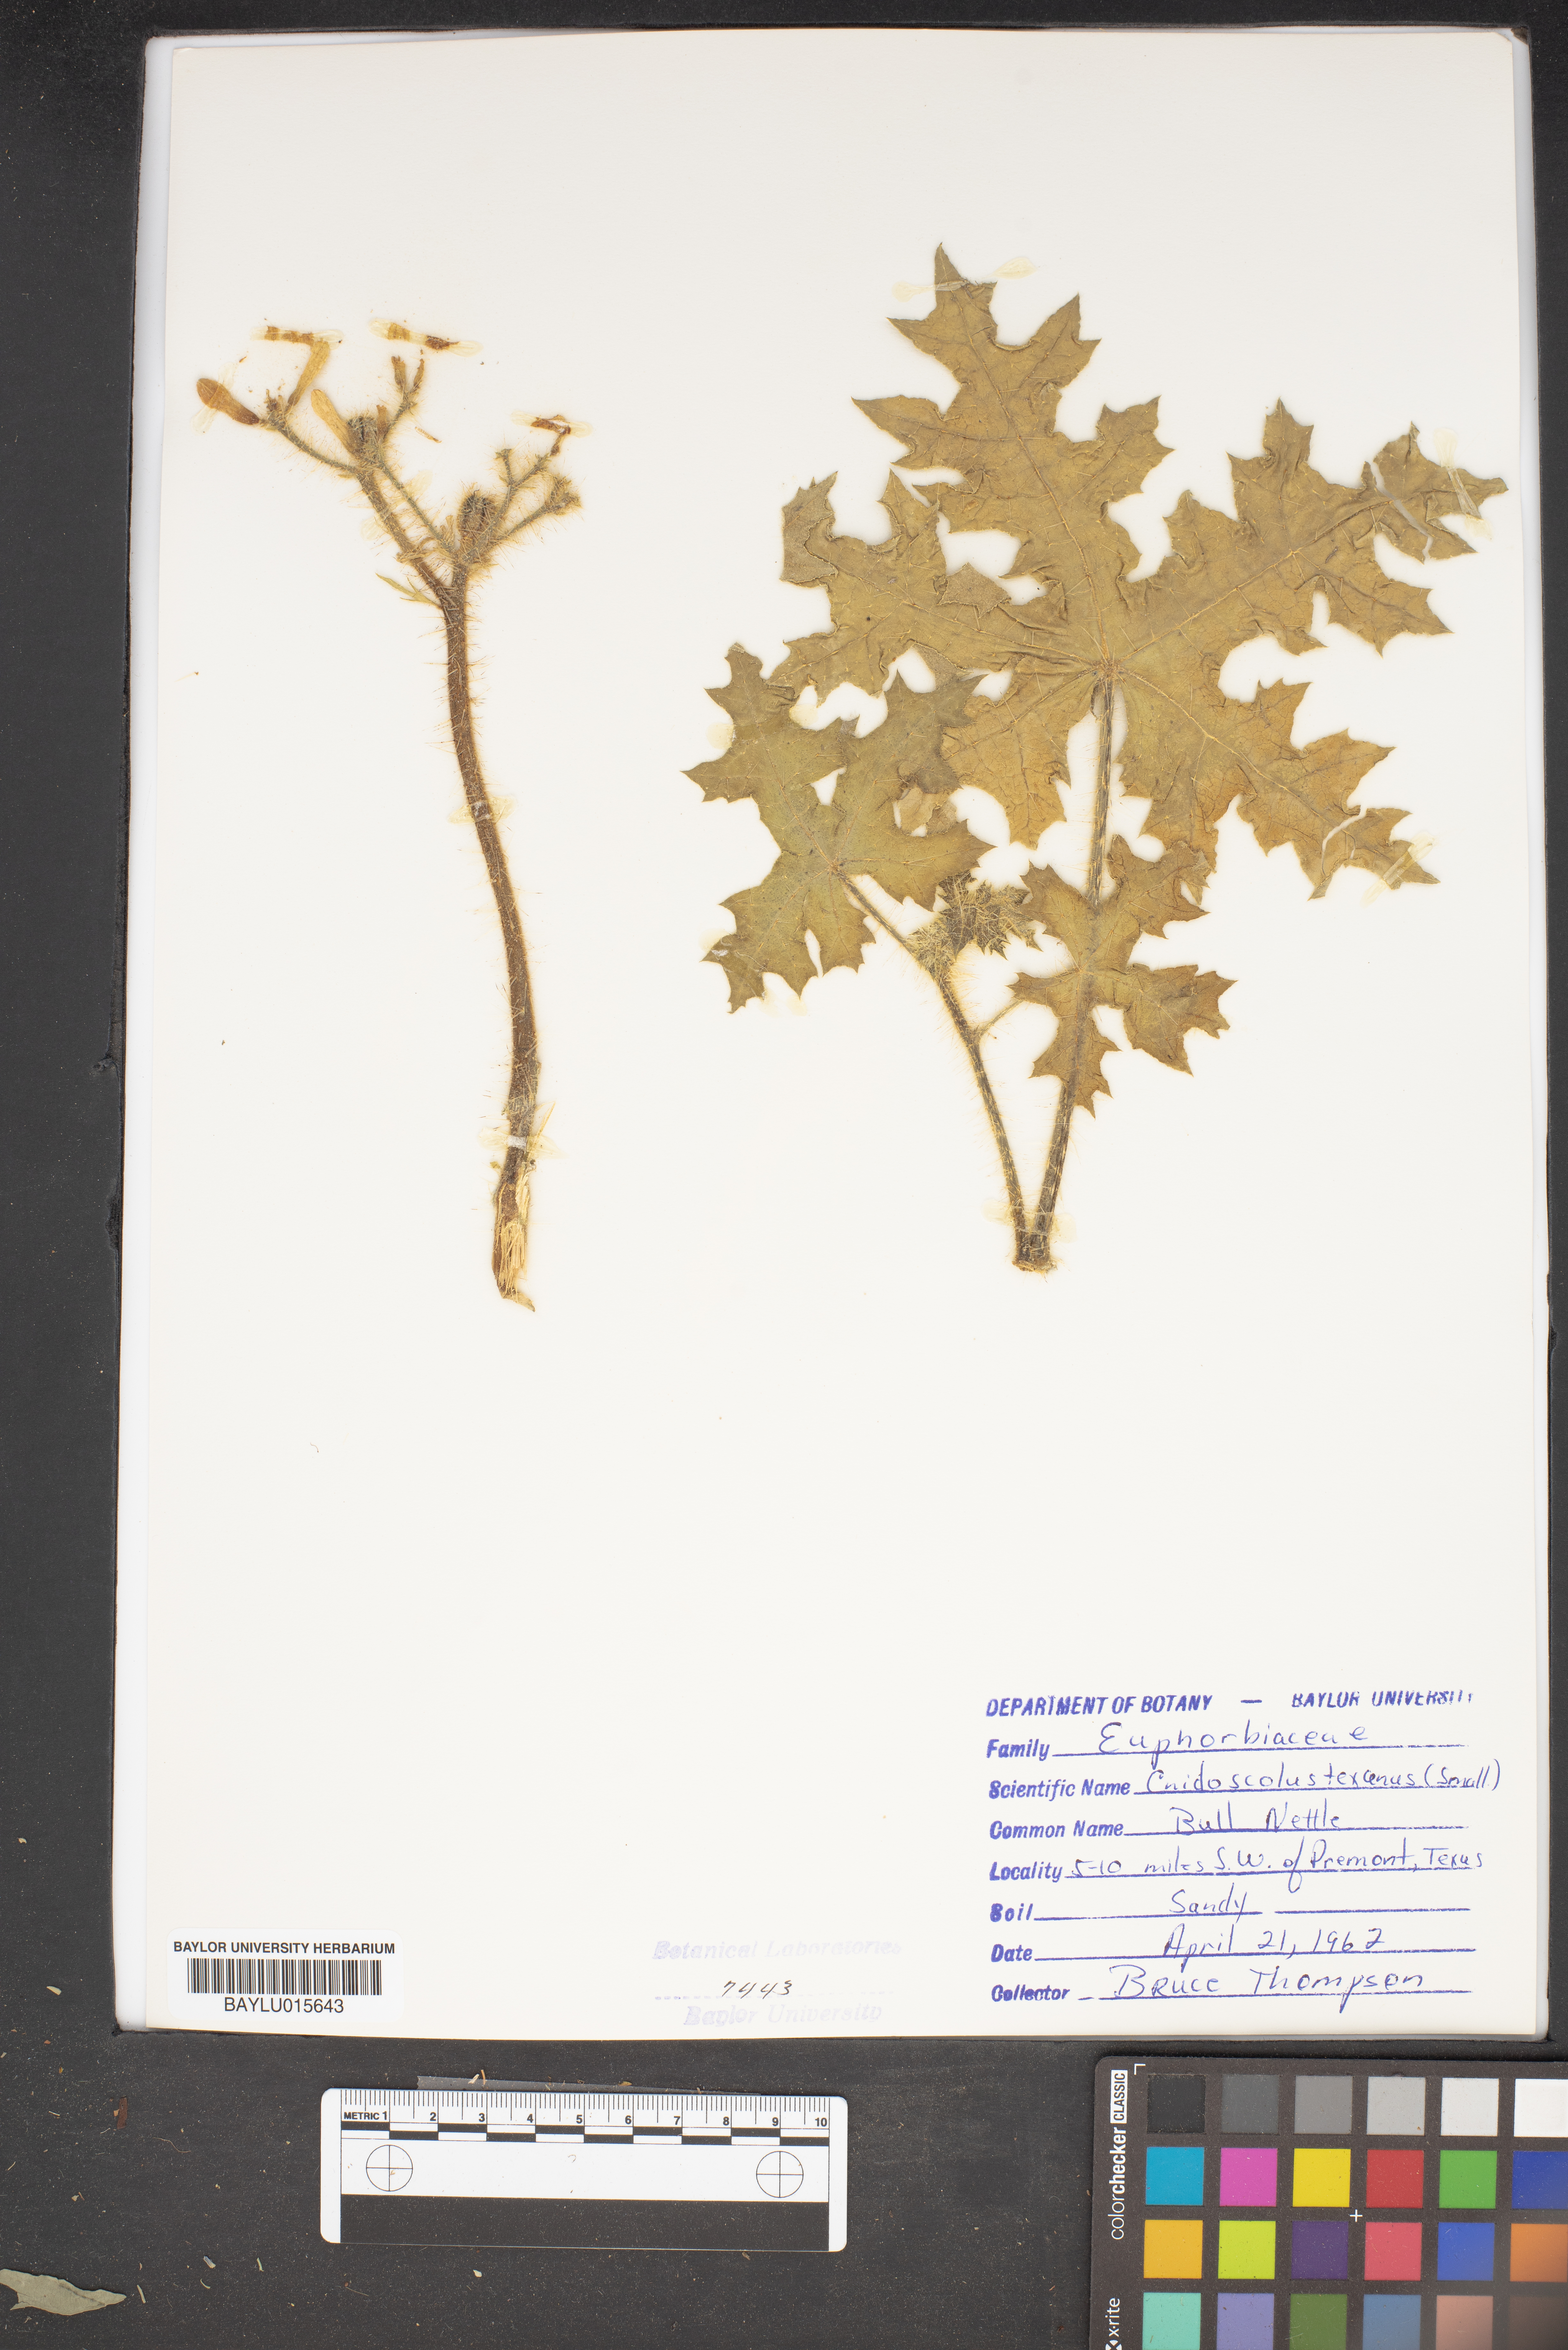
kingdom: Plantae
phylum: Tracheophyta
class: Magnoliopsida
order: Malpighiales
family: Euphorbiaceae
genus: Cnidoscolus
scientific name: Cnidoscolus texanus
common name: Texas bull-nettle
